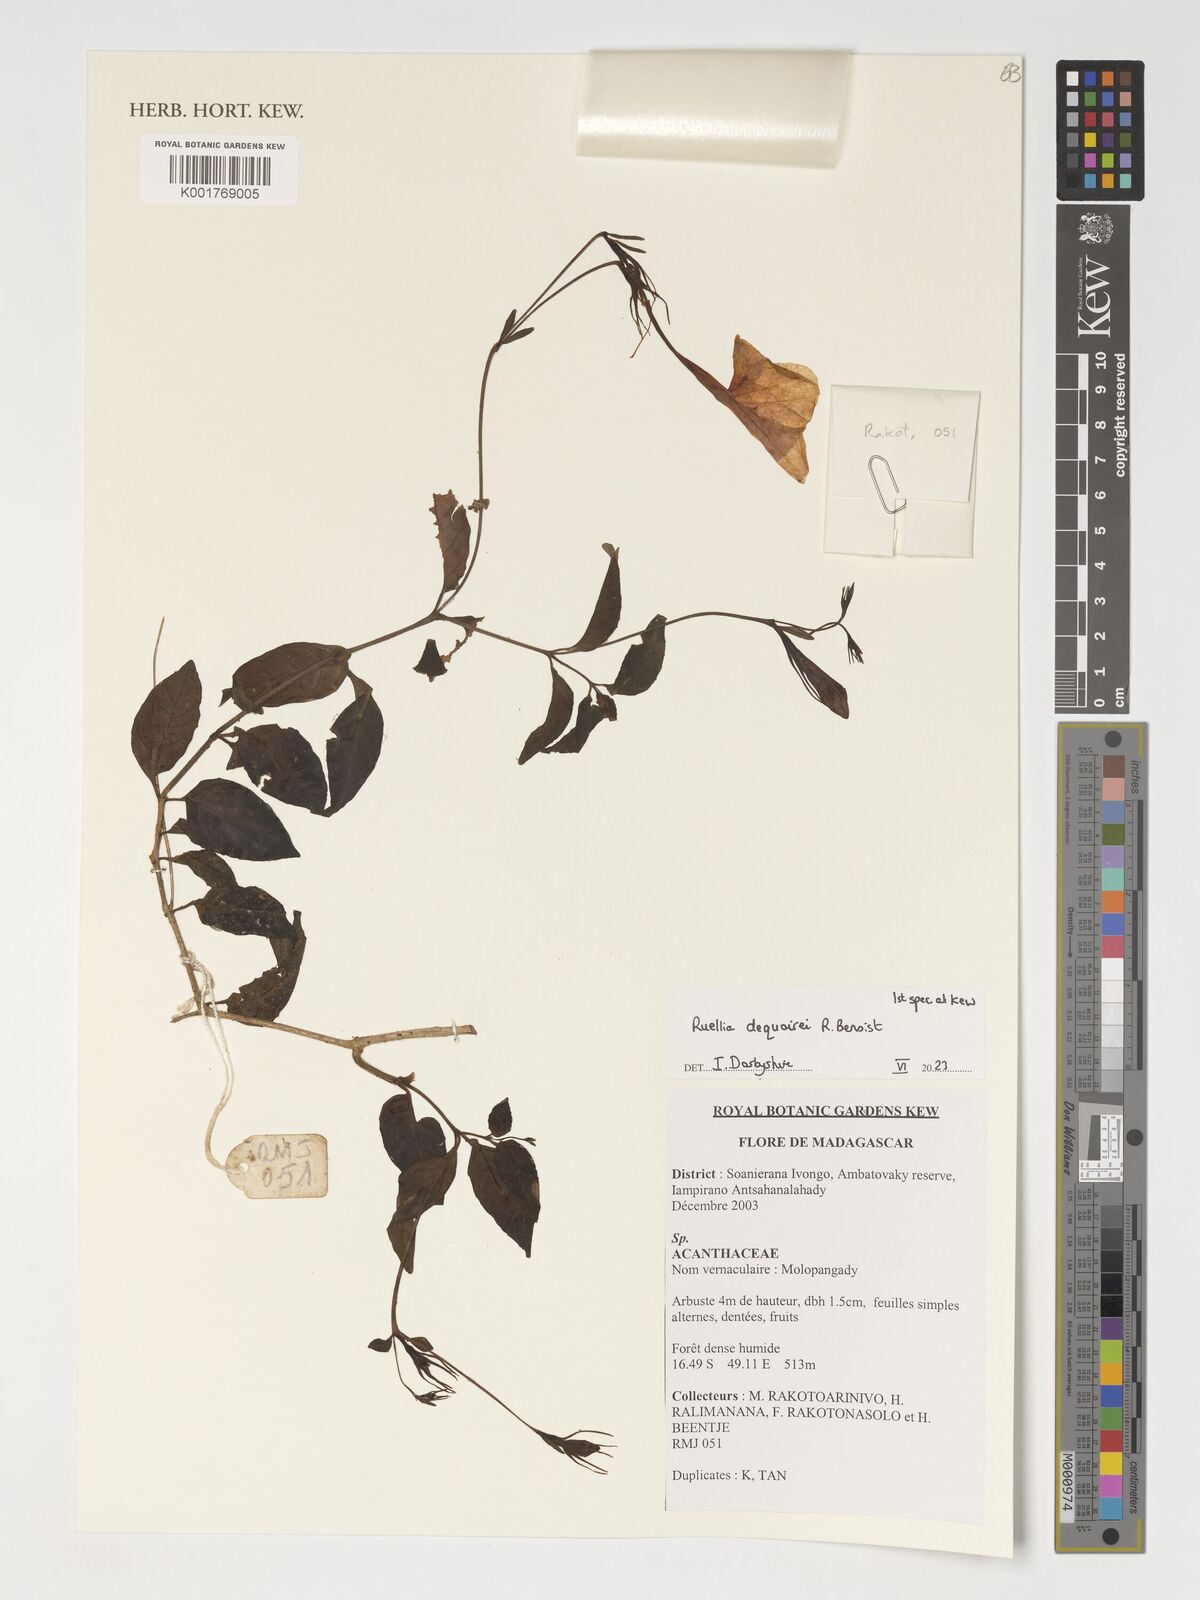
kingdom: Plantae
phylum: Tracheophyta
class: Magnoliopsida
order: Lamiales
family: Acanthaceae
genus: Ruellia
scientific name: Ruellia dequairei
